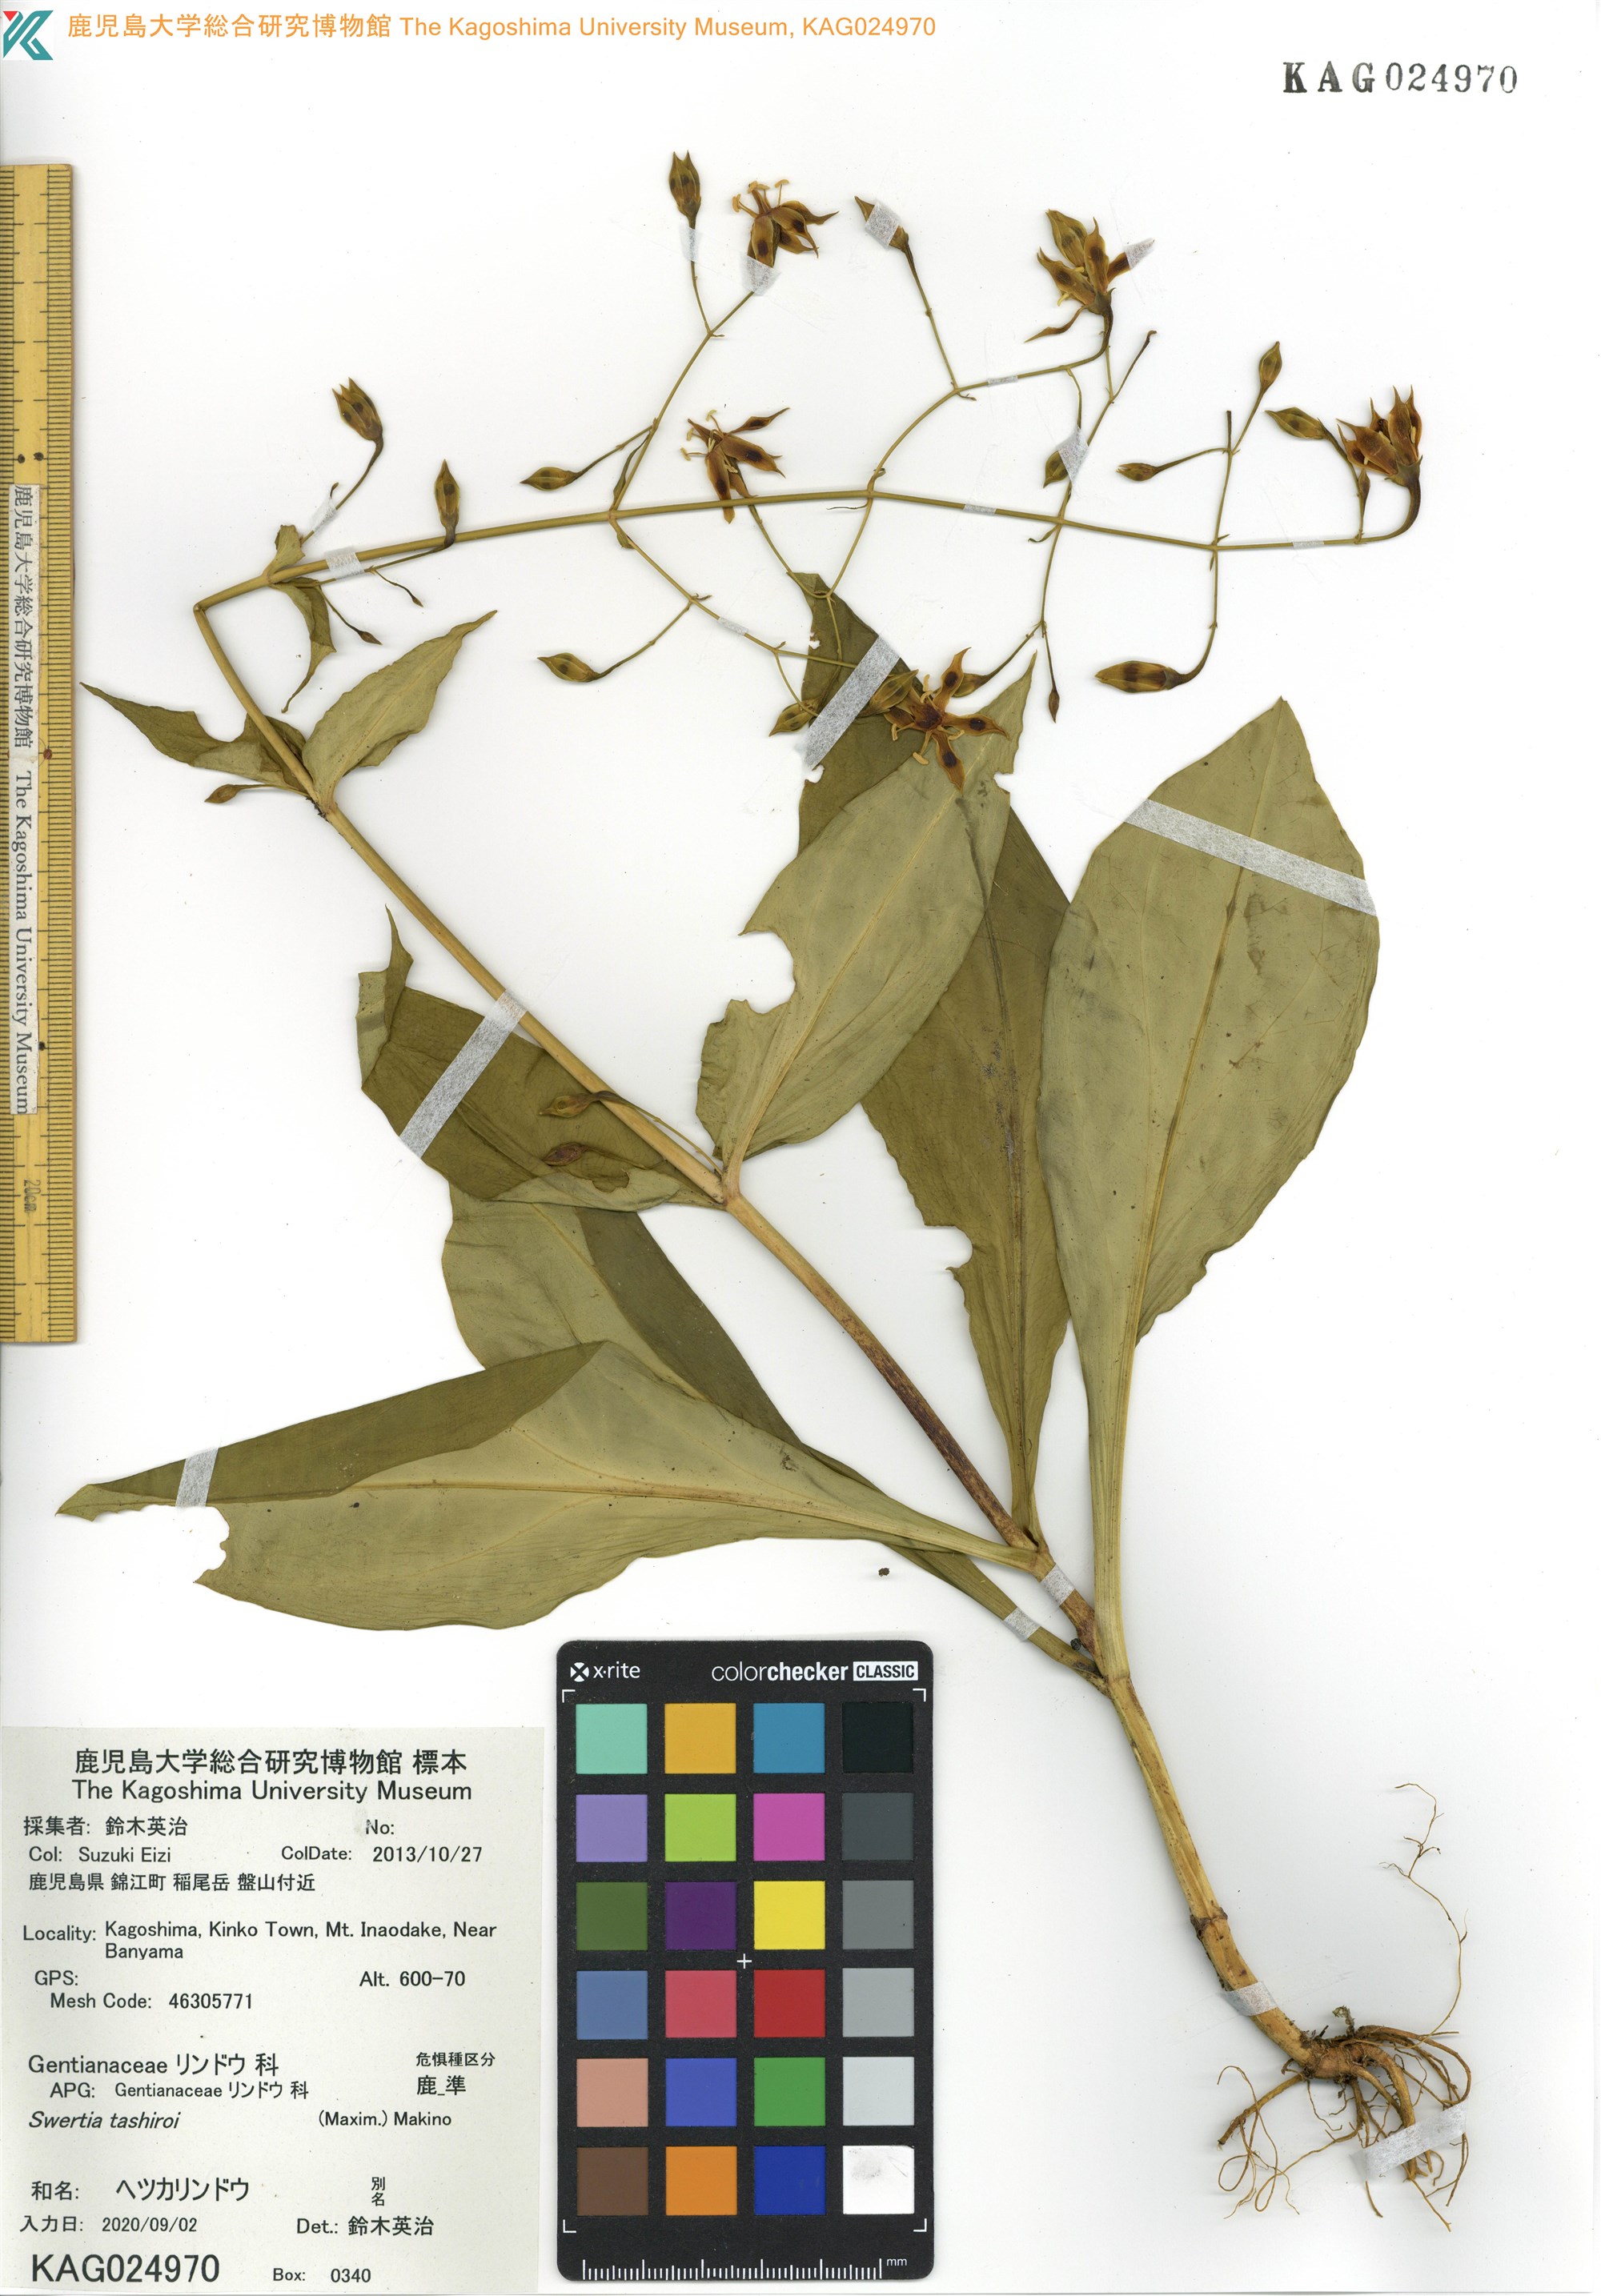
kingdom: Plantae
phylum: Tracheophyta
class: Magnoliopsida
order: Gentianales
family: Gentianaceae
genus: Swertia
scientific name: Swertia tashiroi
